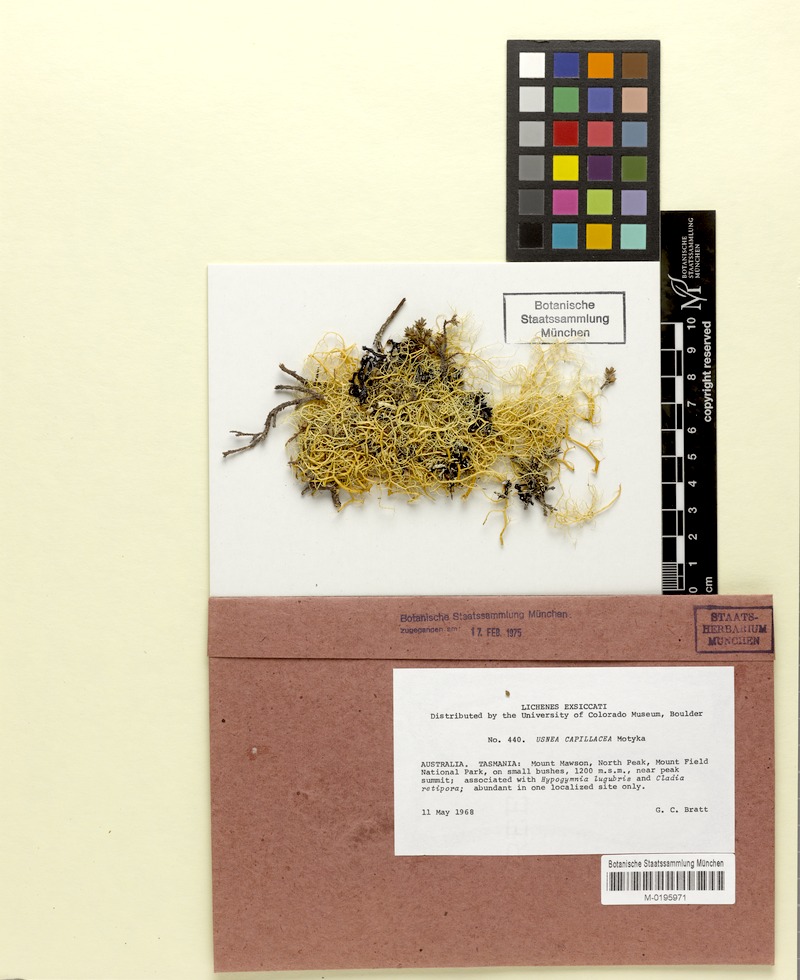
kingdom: Fungi
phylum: Ascomycota
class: Lecanoromycetes
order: Lecanorales
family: Parmeliaceae
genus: Usnea
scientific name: Usnea capillacea
